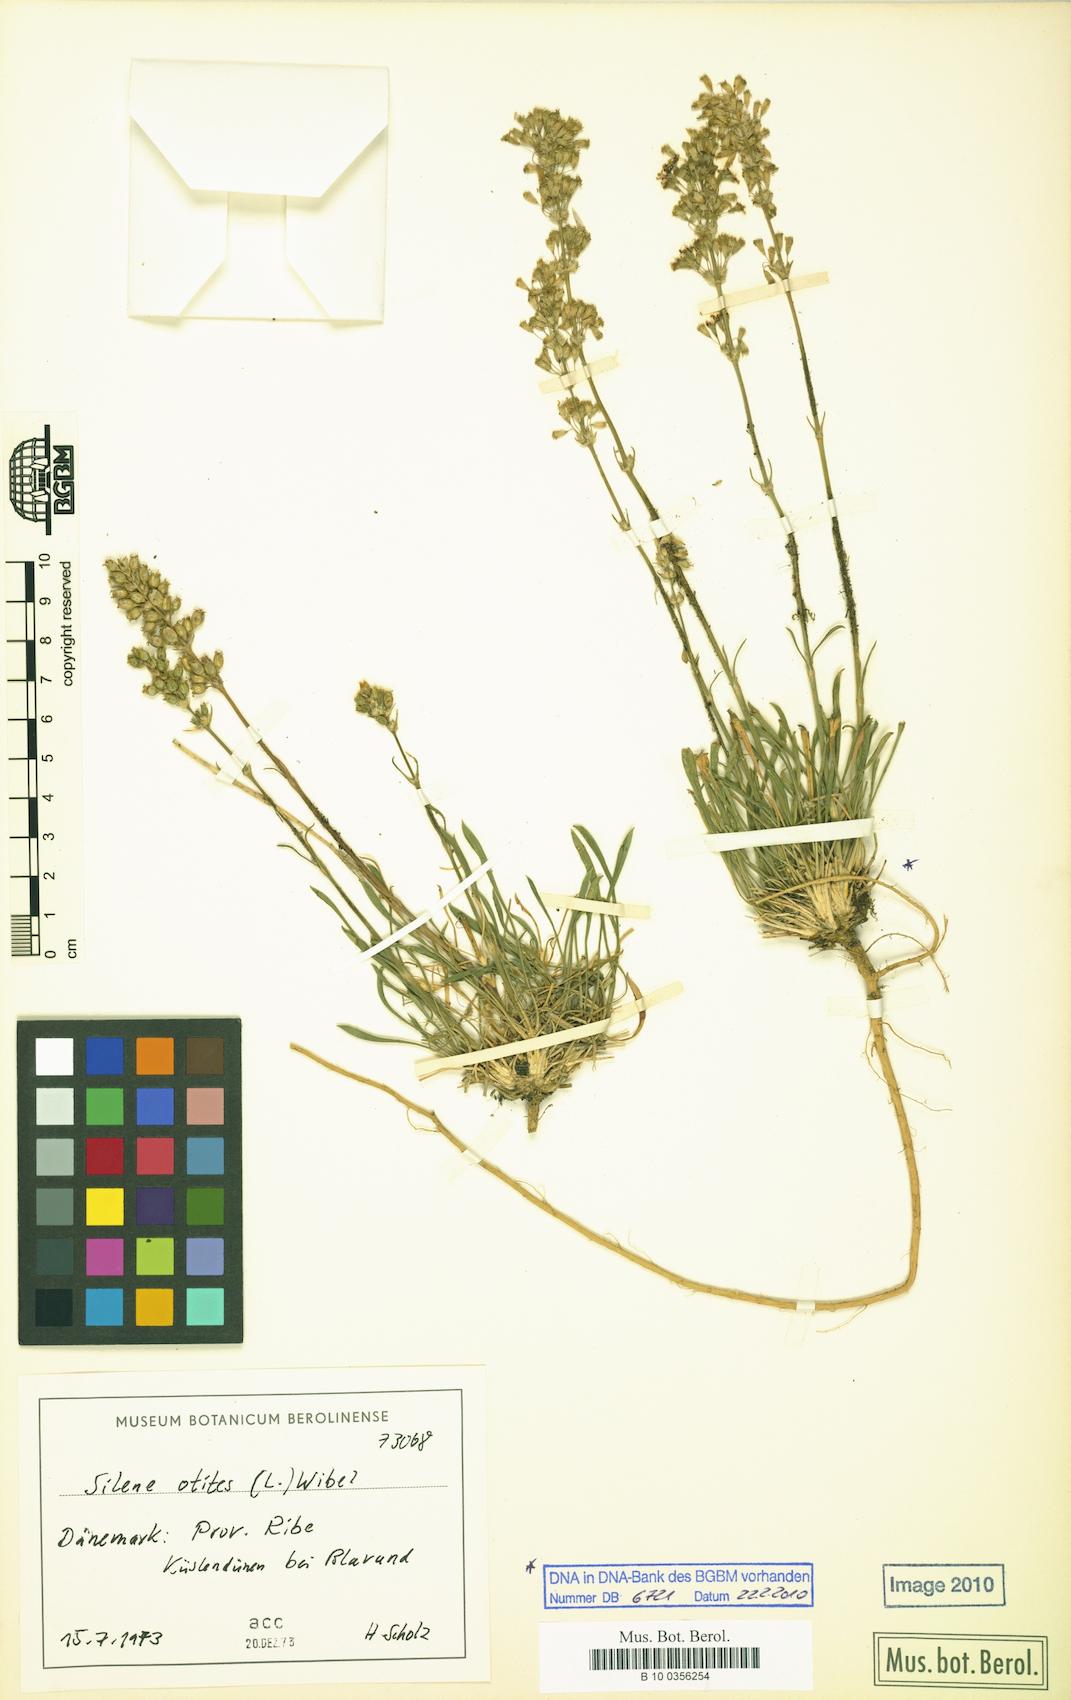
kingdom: Plantae
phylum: Tracheophyta
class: Magnoliopsida
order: Caryophyllales
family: Caryophyllaceae
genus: Silene
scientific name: Silene otites
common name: Spanish catchfly
